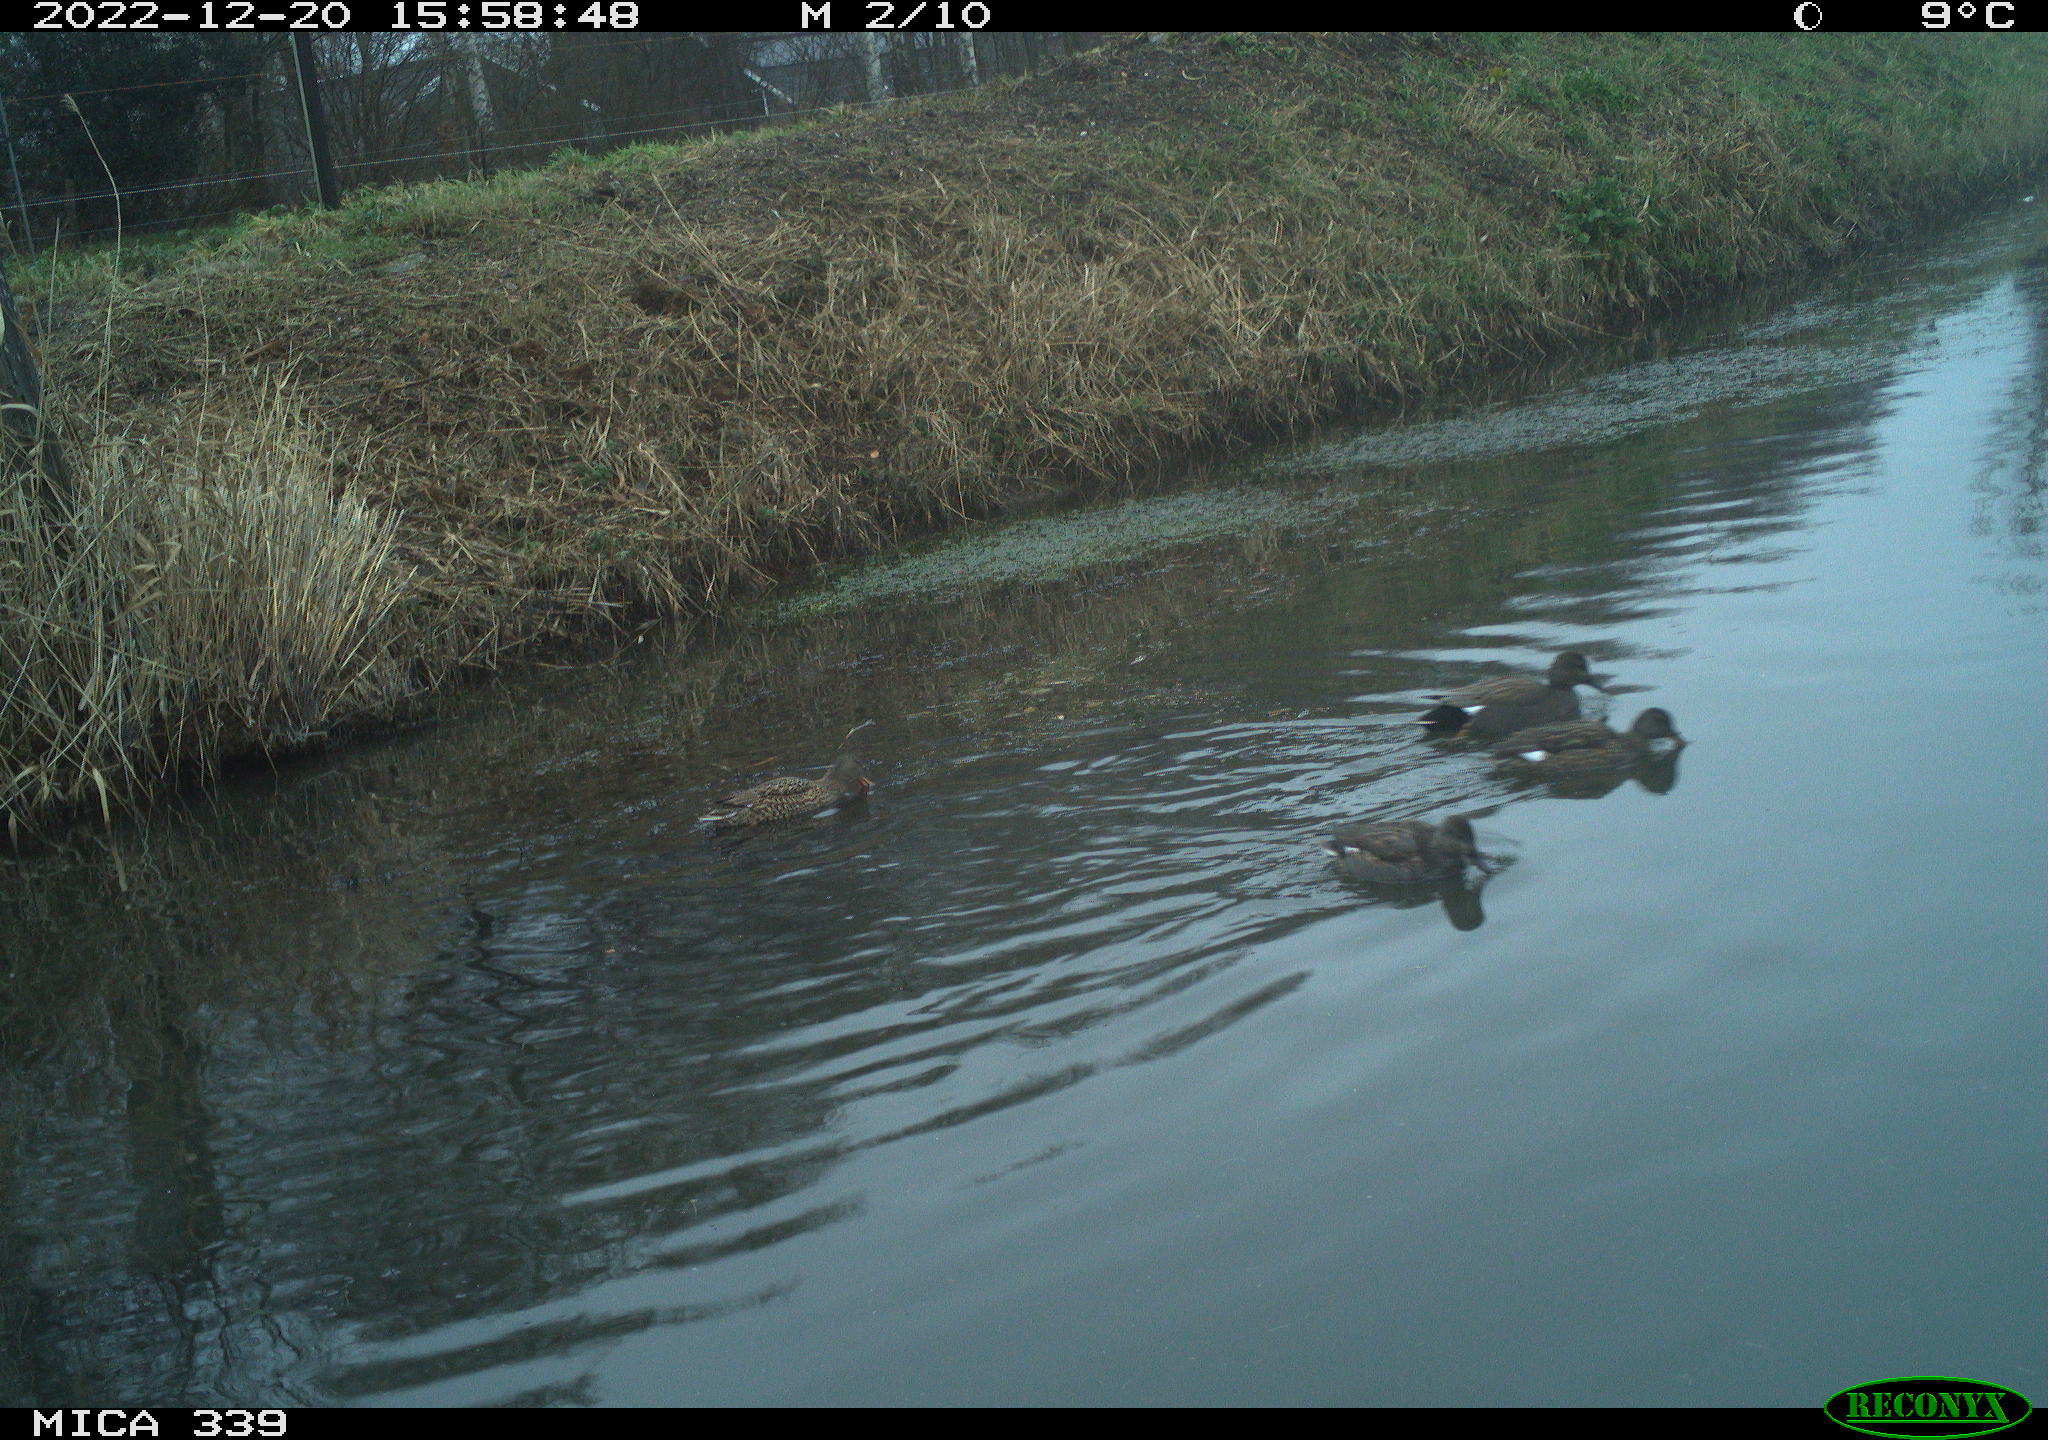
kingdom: Animalia
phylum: Chordata
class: Aves
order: Anseriformes
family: Anatidae
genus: Anas
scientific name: Anas
